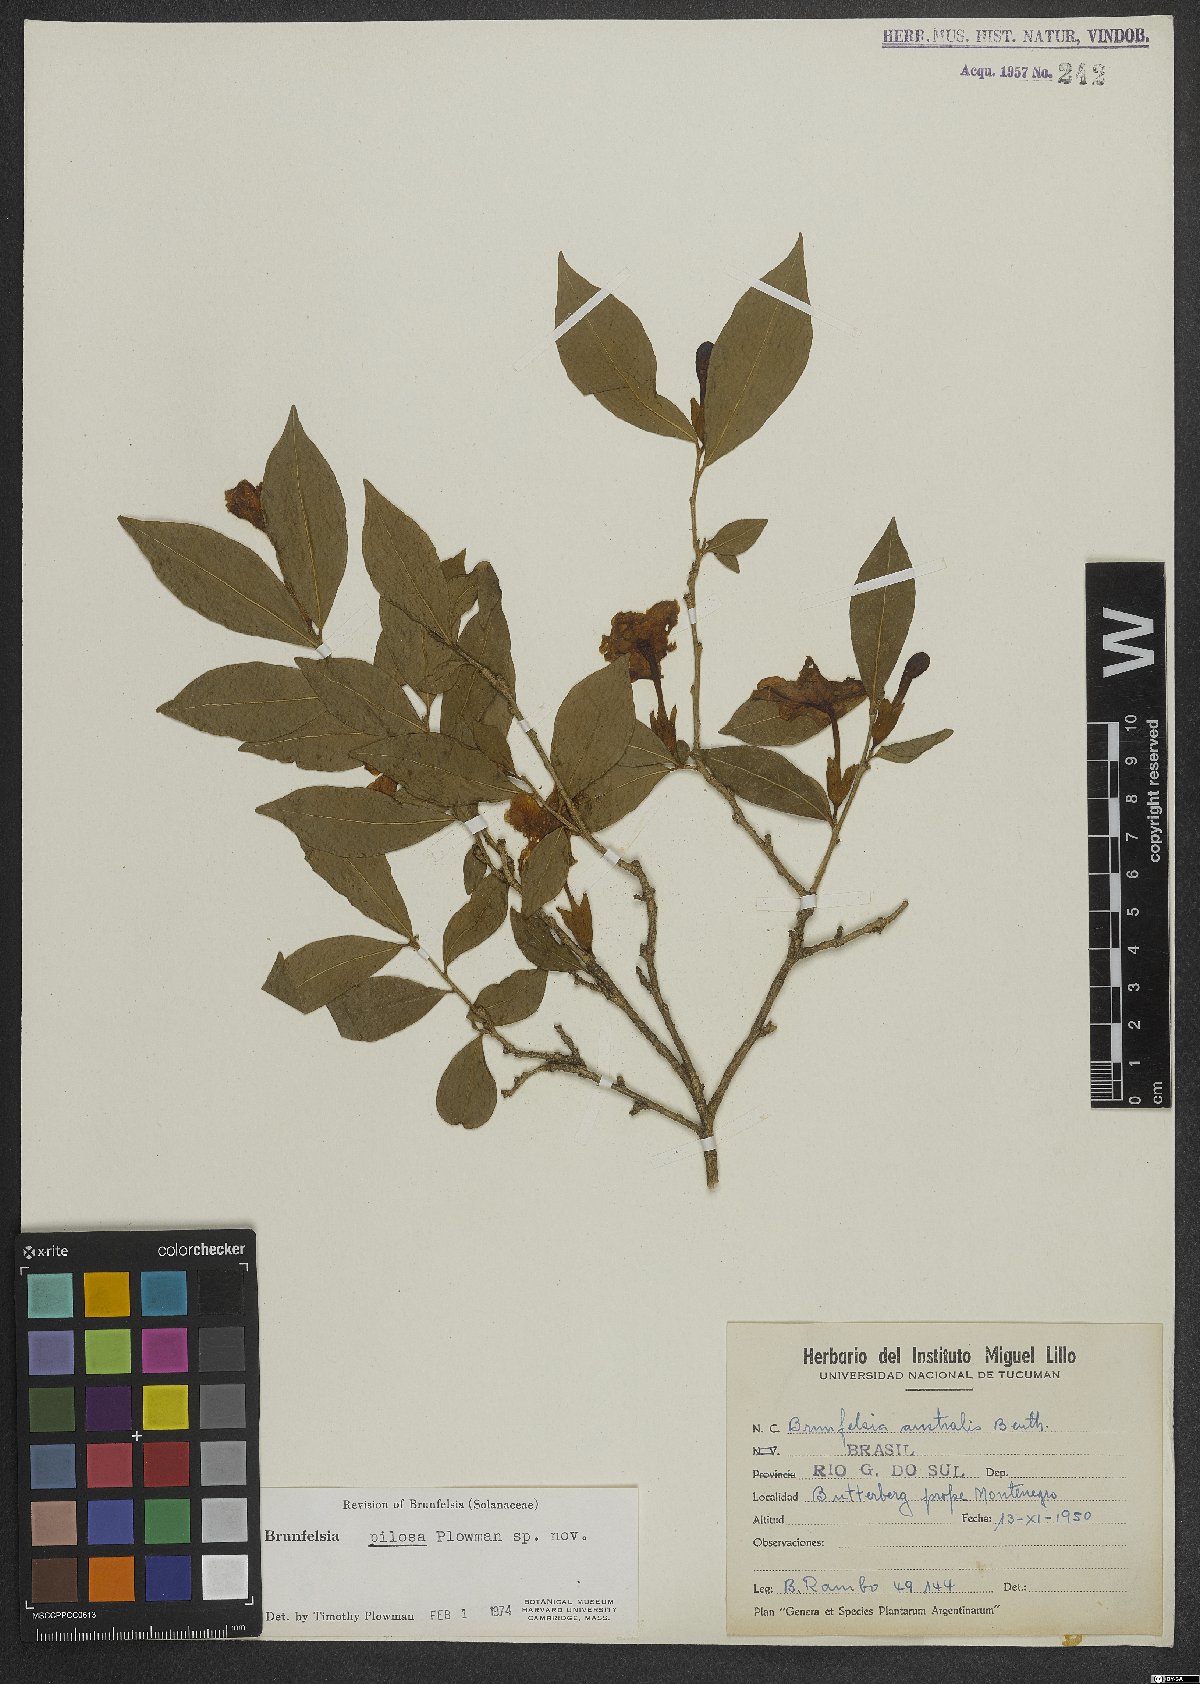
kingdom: Plantae
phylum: Tracheophyta
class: Magnoliopsida
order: Solanales
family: Solanaceae
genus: Brunfelsia
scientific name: Brunfelsia pilosa
